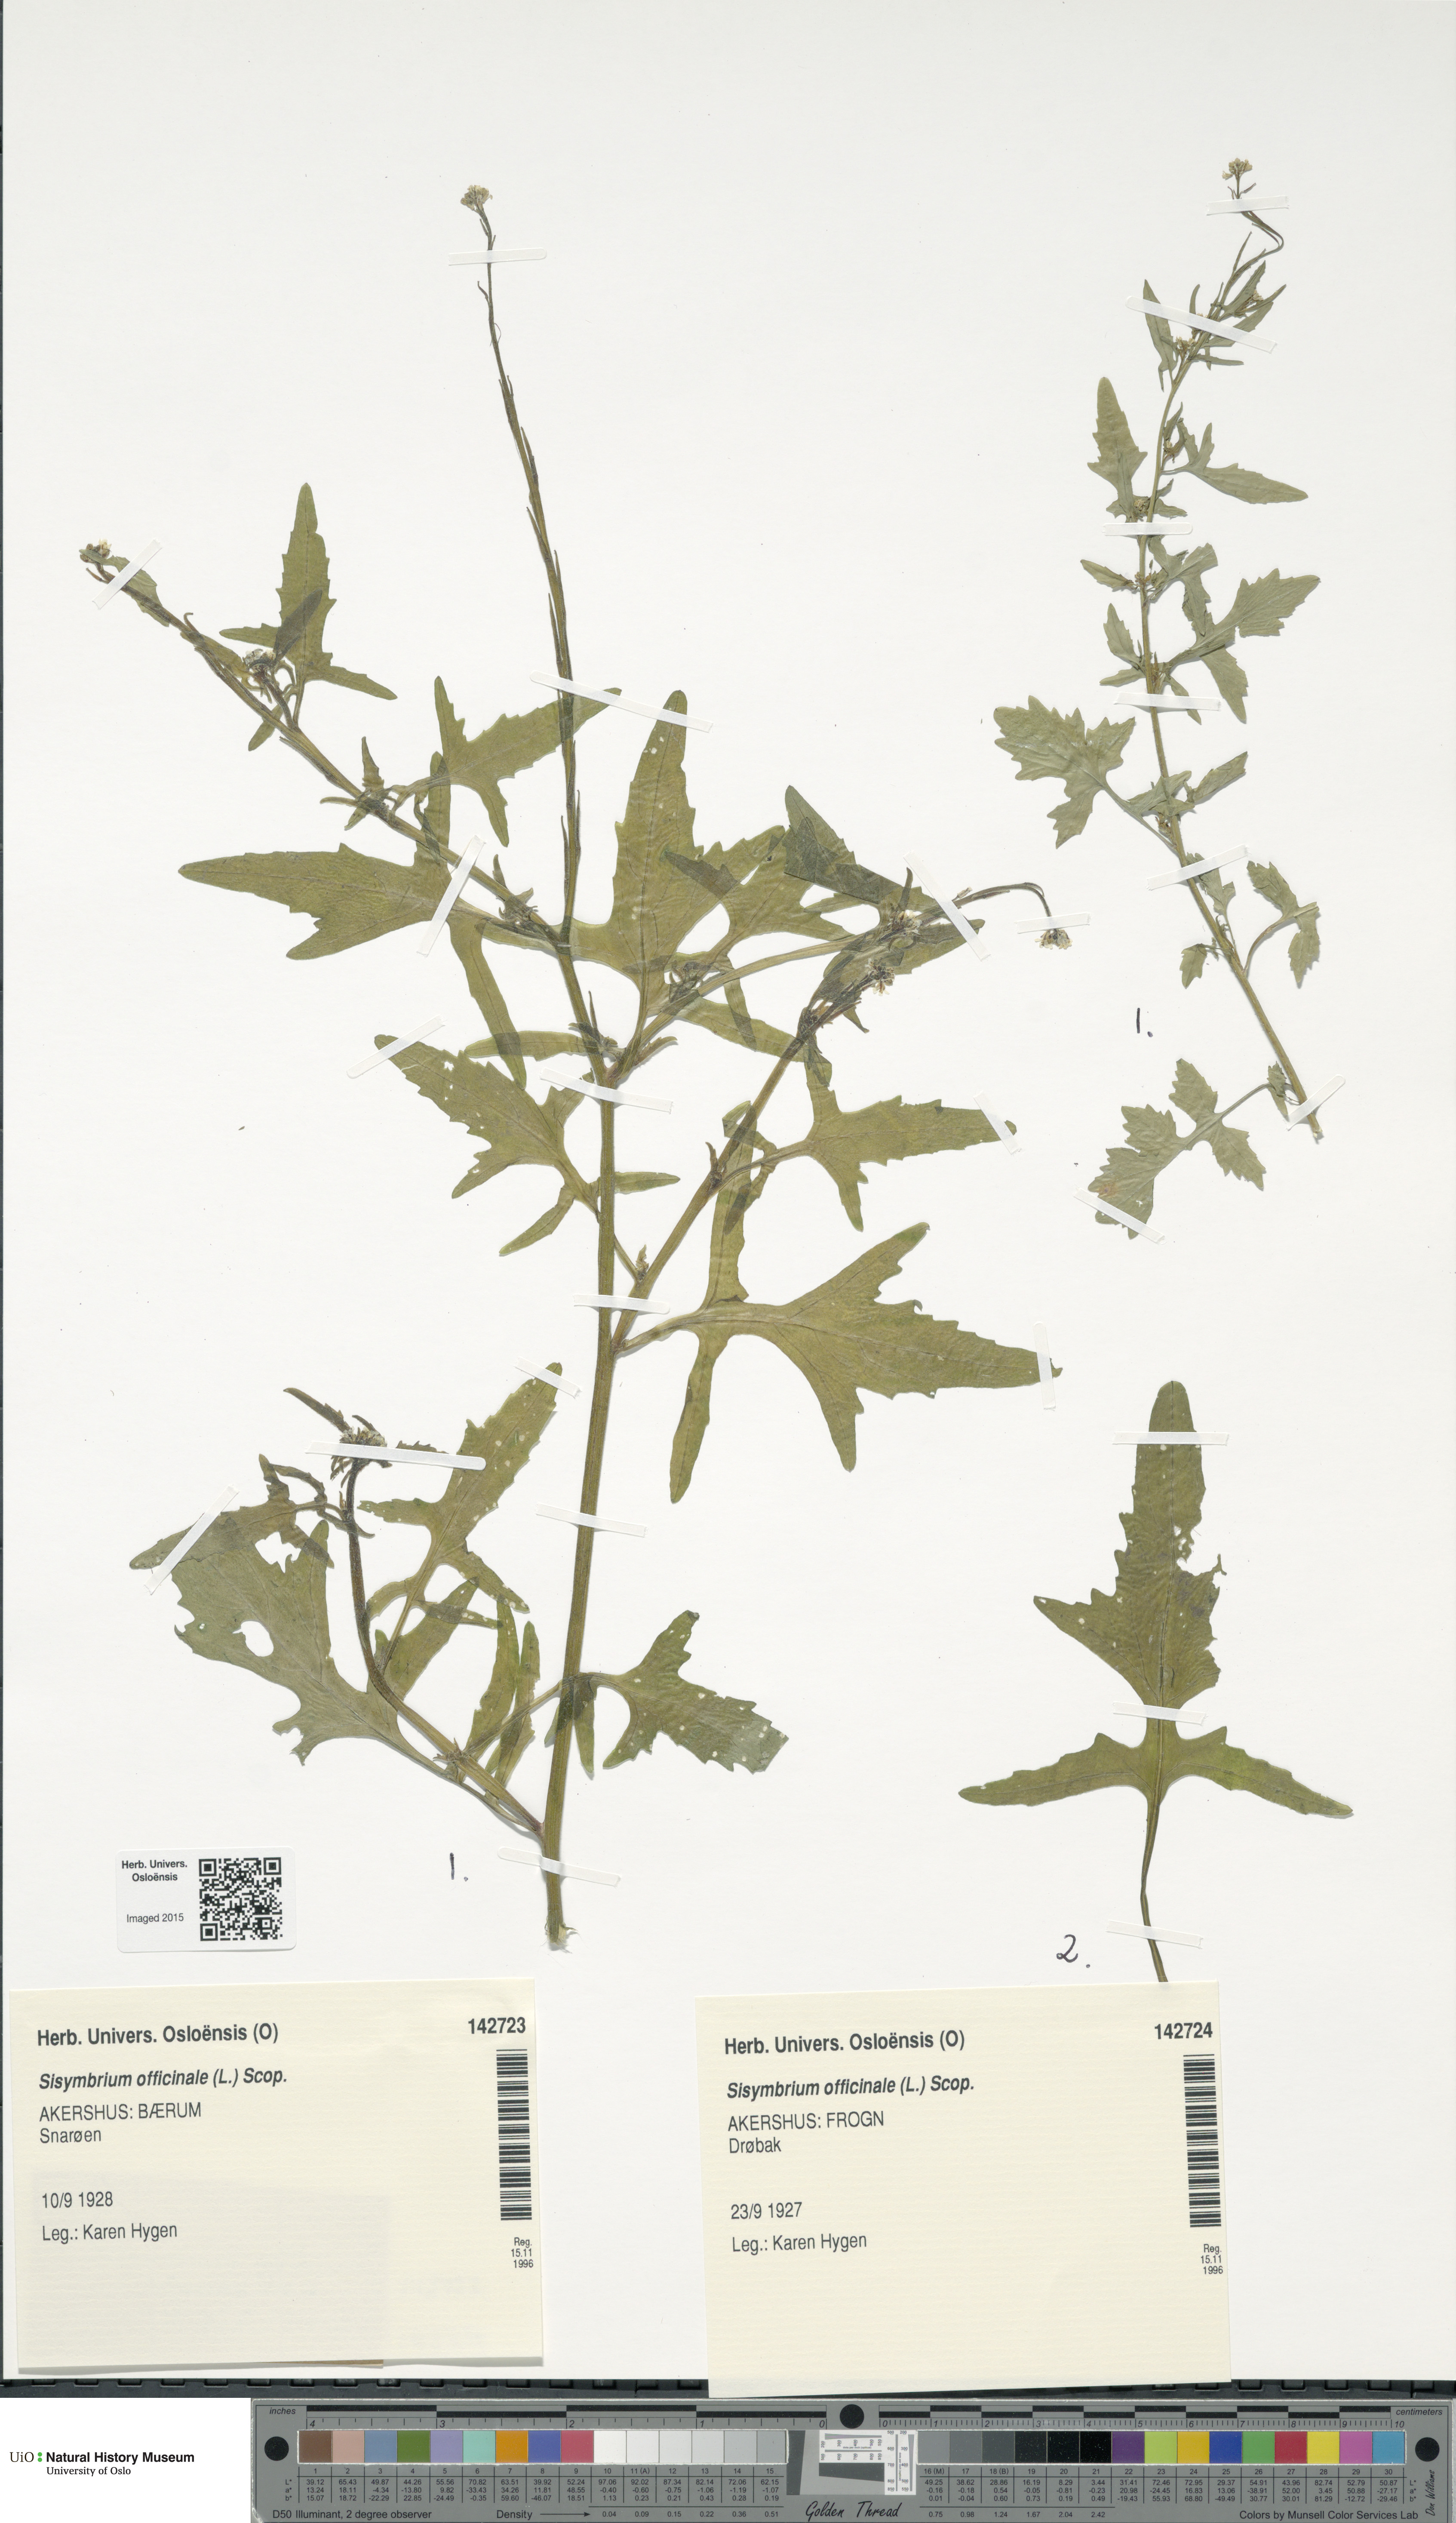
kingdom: Plantae
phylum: Tracheophyta
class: Magnoliopsida
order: Brassicales
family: Brassicaceae
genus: Sisymbrium
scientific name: Sisymbrium officinale
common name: Hedge mustard
